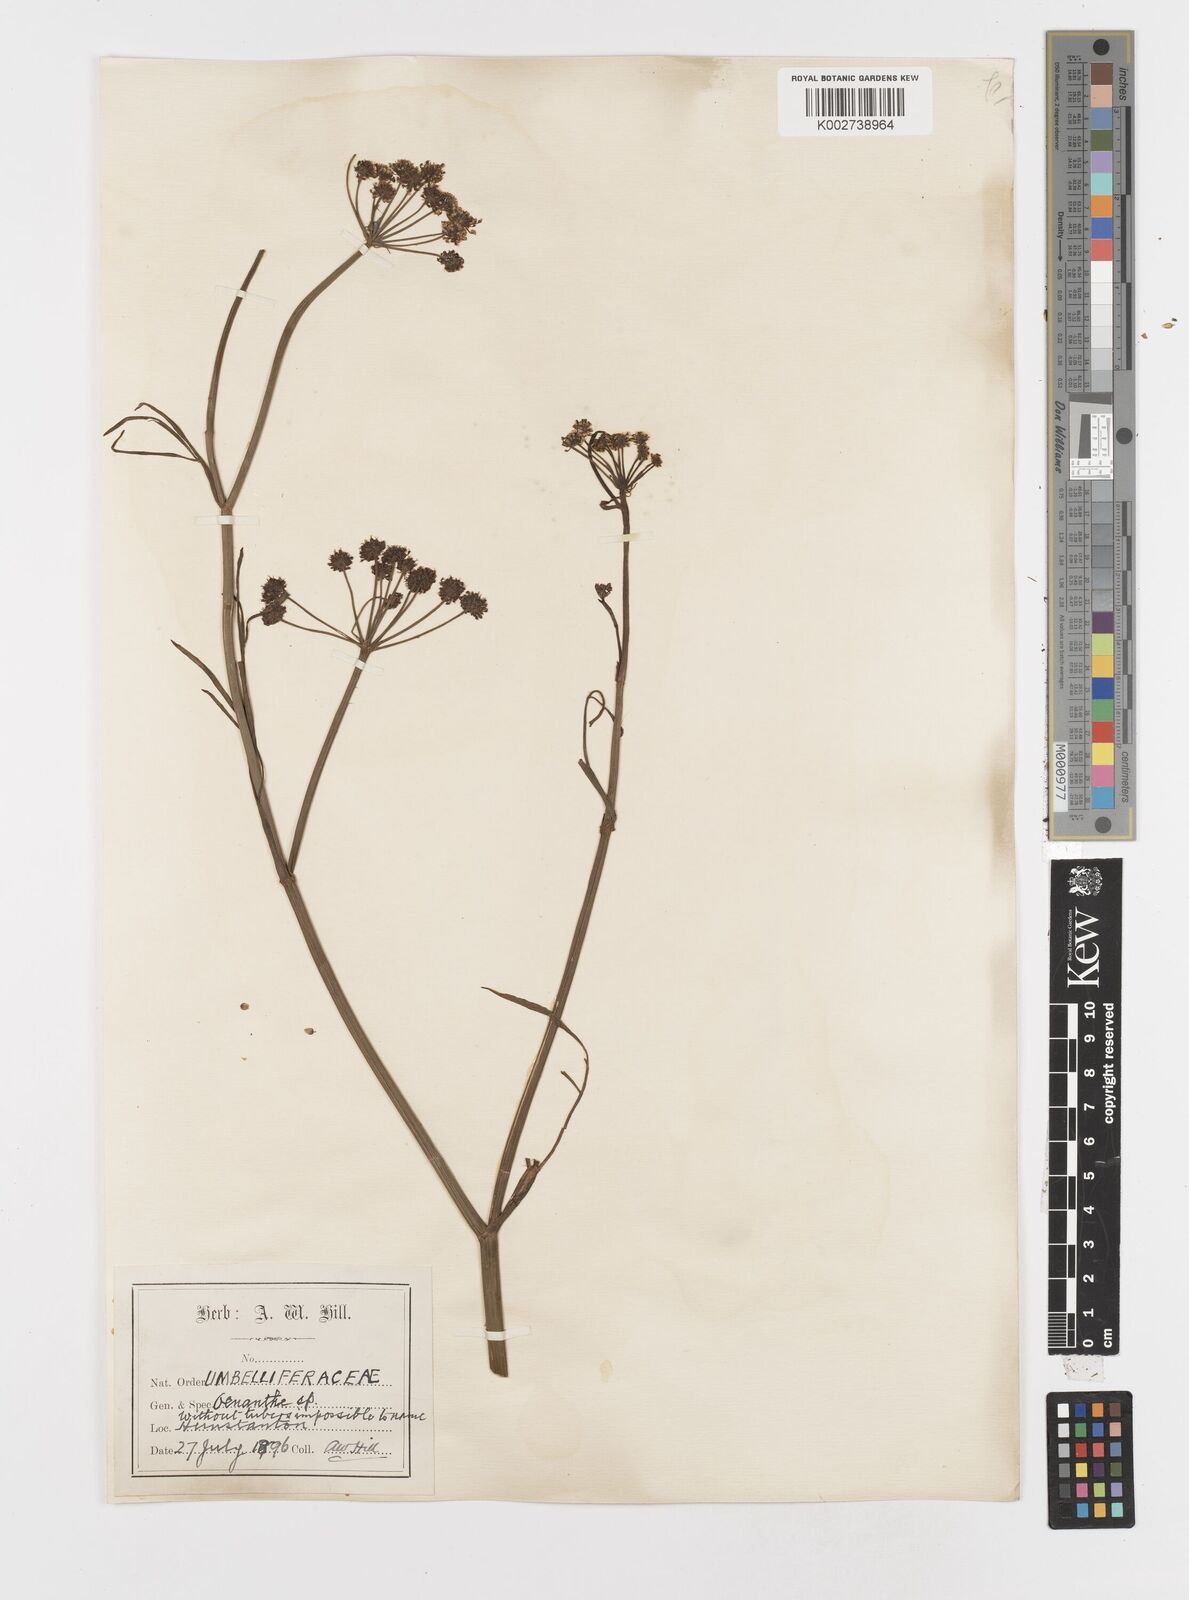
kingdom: Plantae
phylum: Tracheophyta
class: Magnoliopsida
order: Apiales
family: Apiaceae
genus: Oenanthe
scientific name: Oenanthe lachenalii
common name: Parsley water-dropwort
